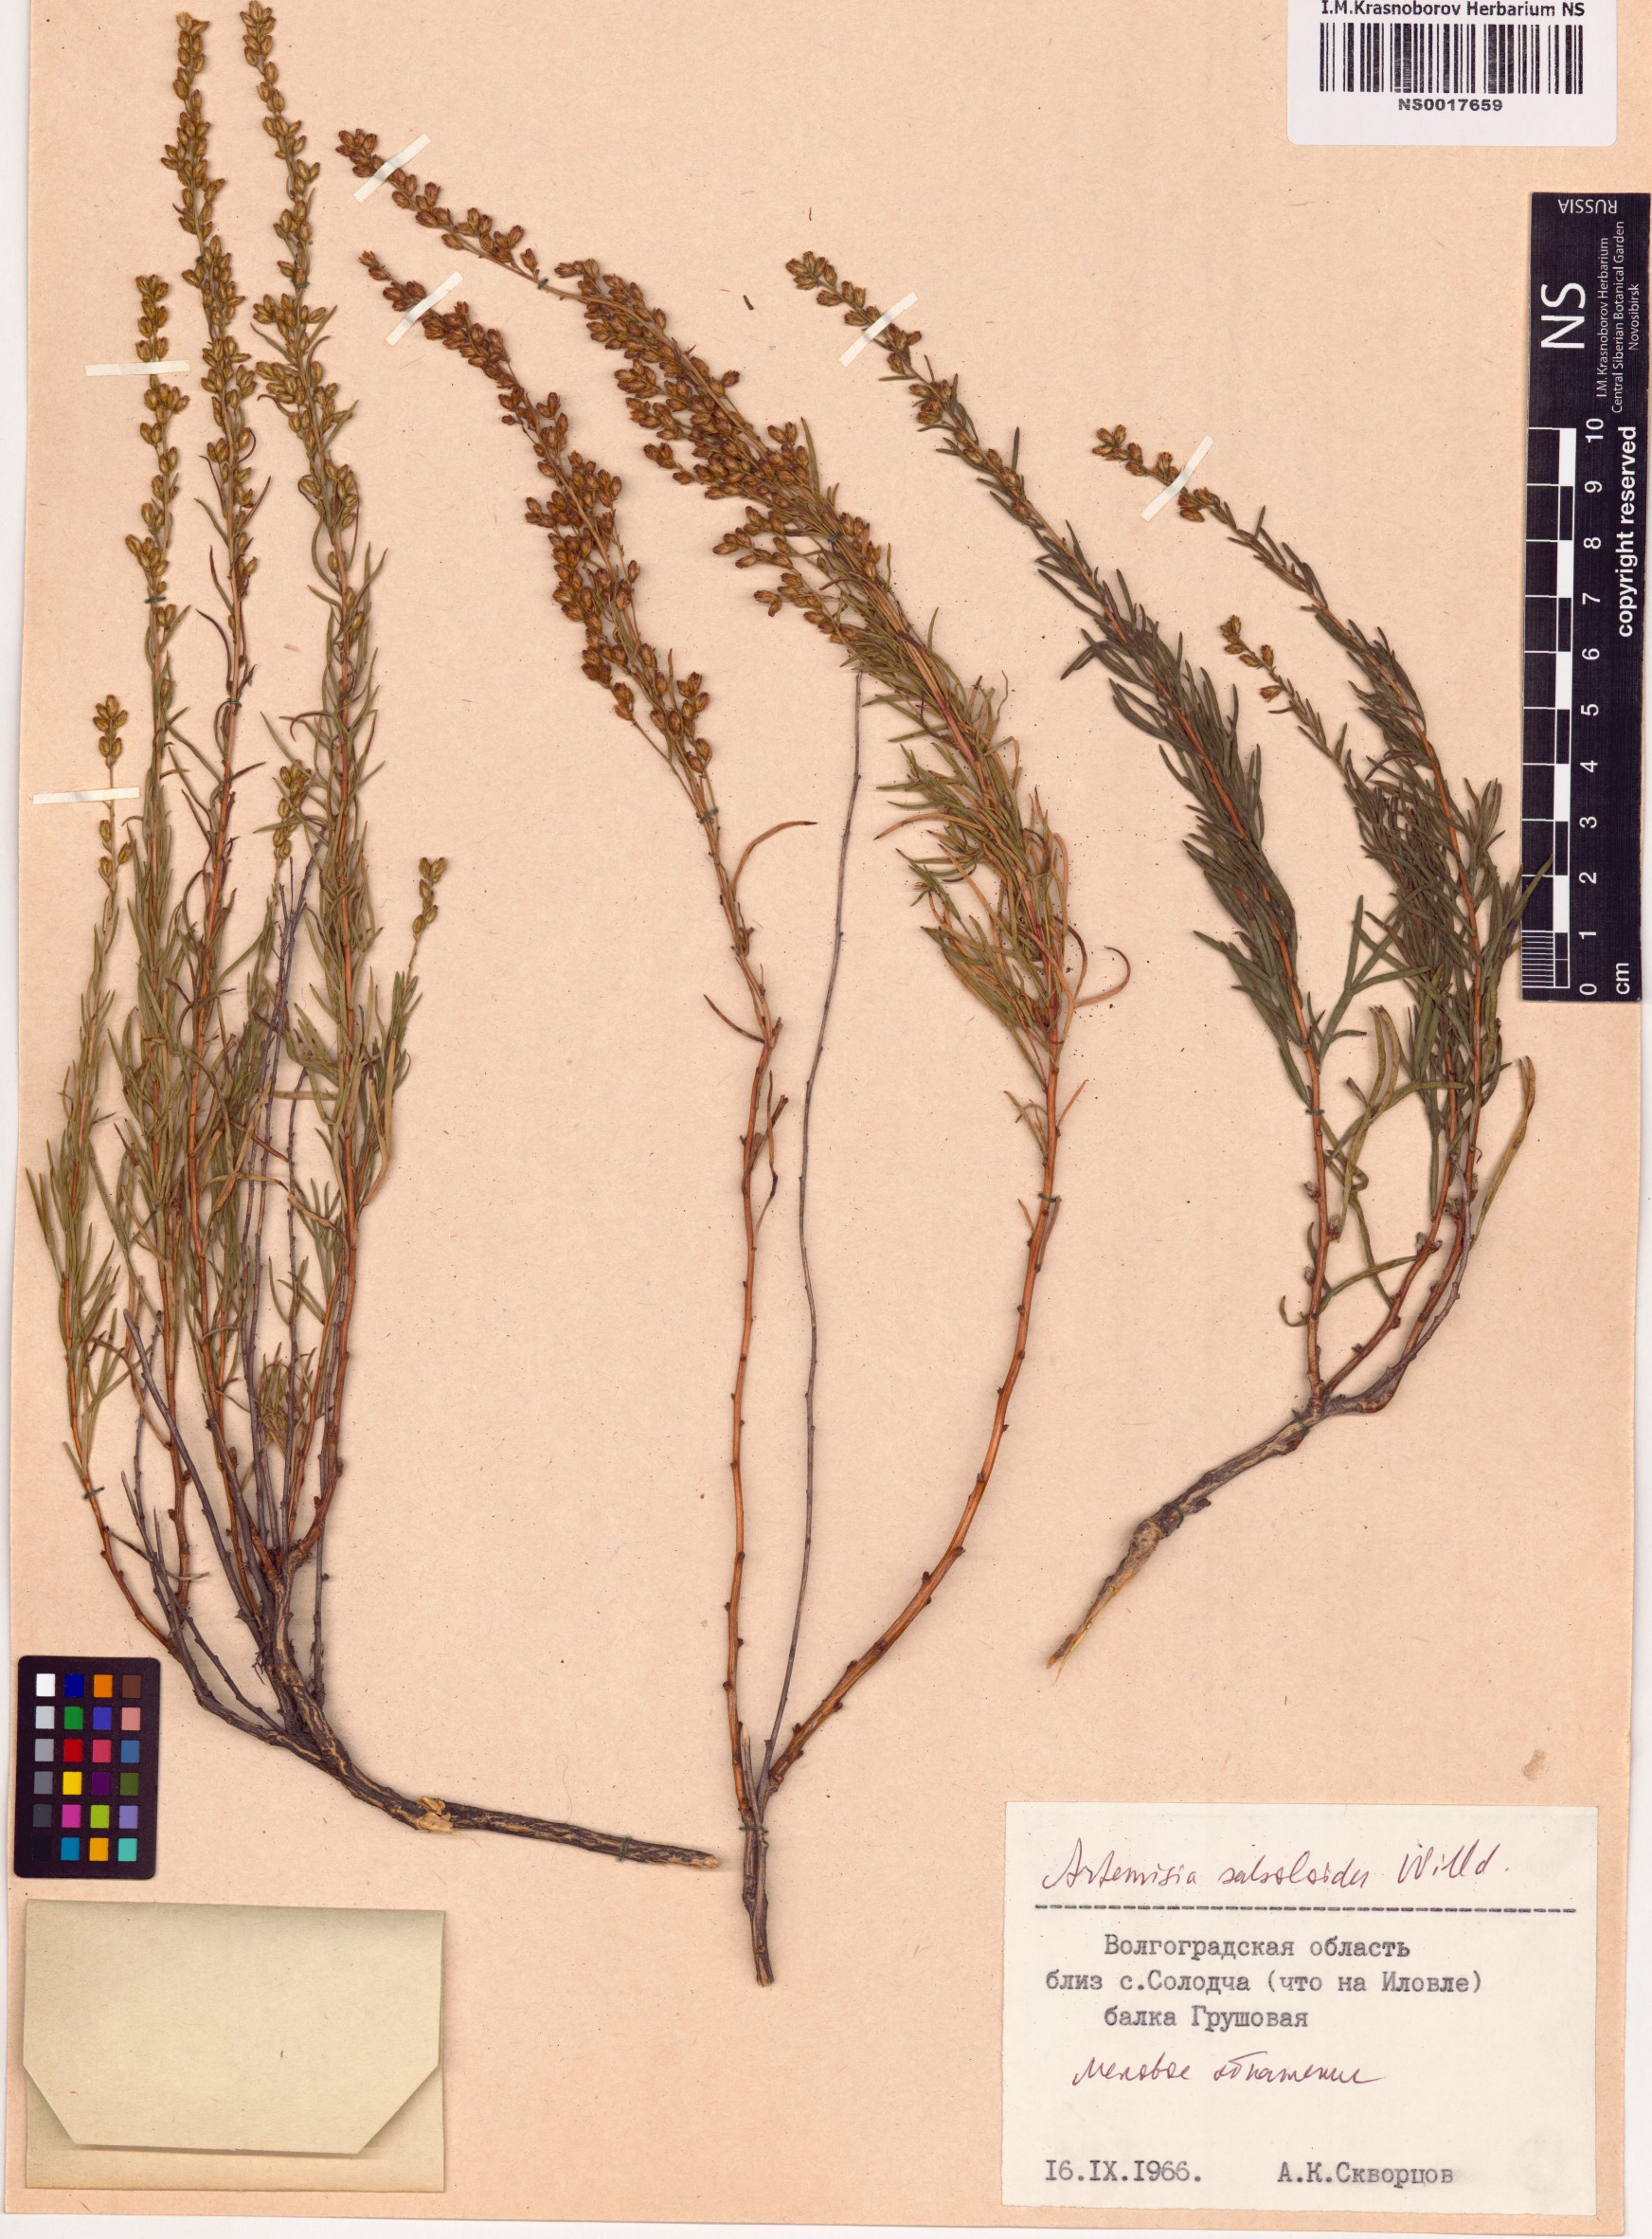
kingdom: Plantae
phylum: Tracheophyta
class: Magnoliopsida
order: Asterales
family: Asteraceae
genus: Artemisia
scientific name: Artemisia salsoloides
